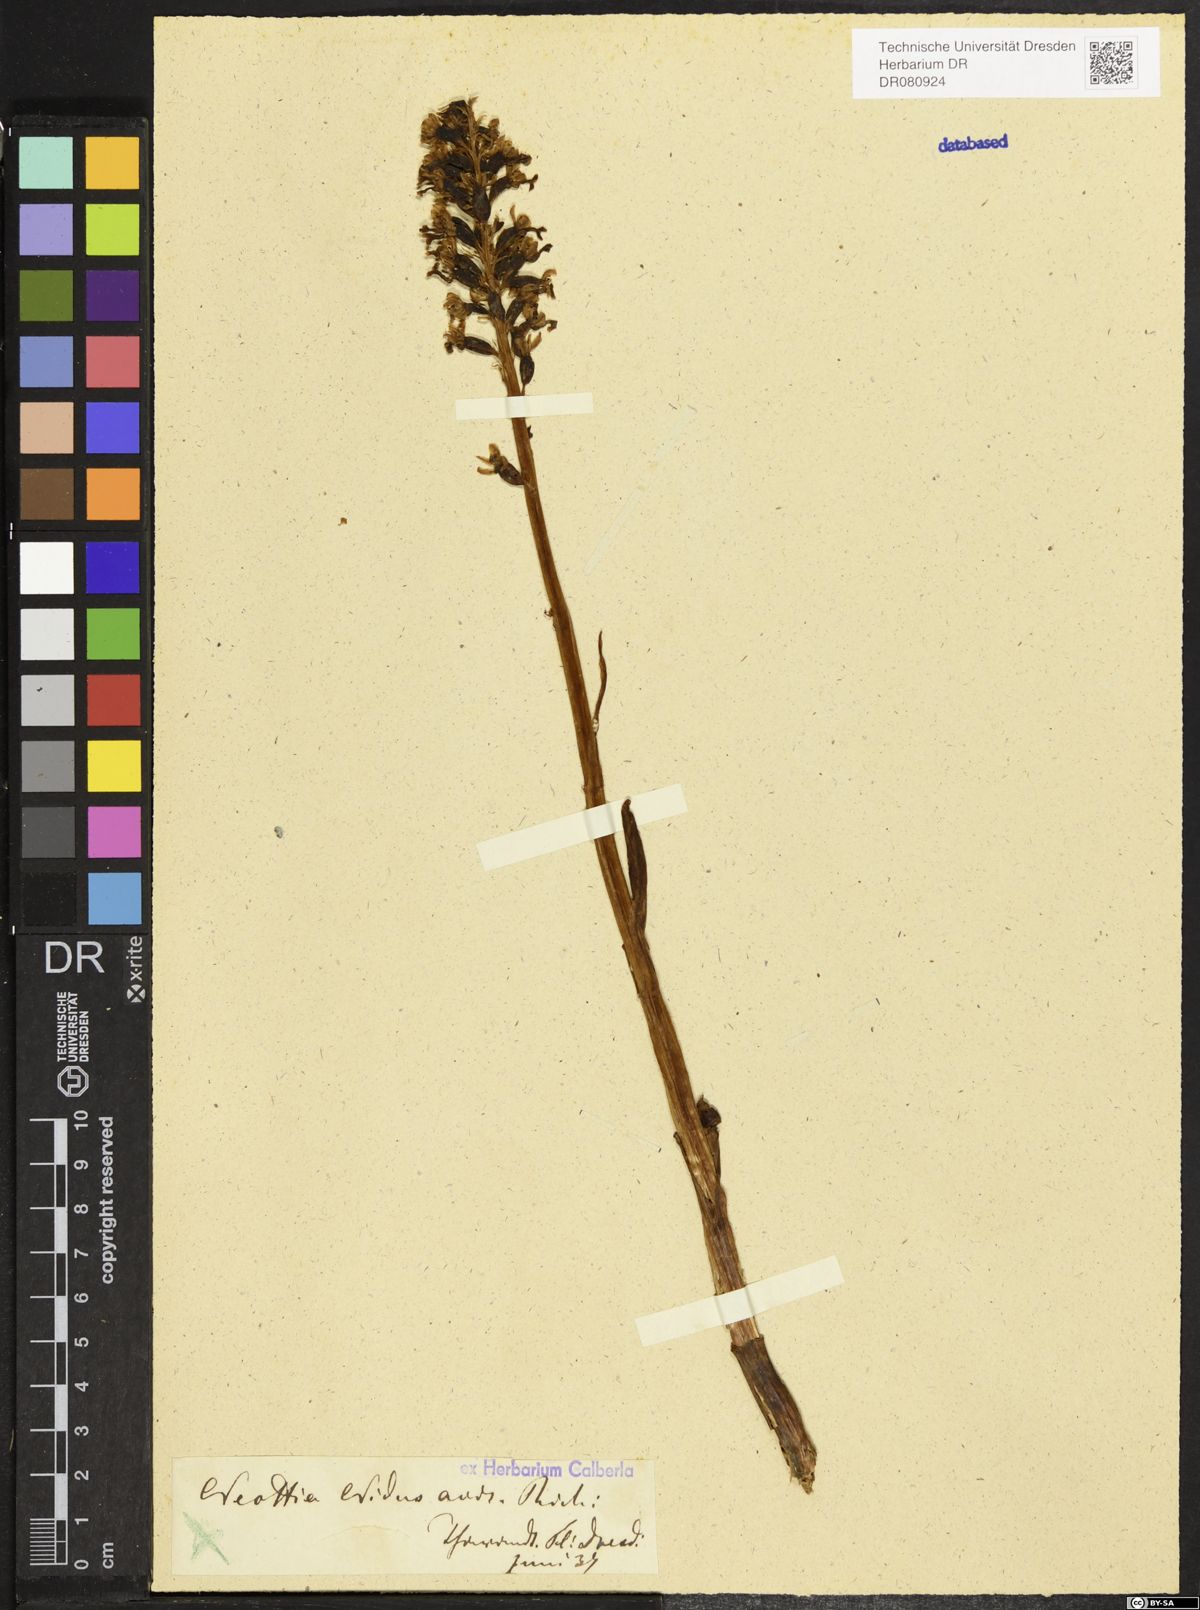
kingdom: Plantae
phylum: Tracheophyta
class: Liliopsida
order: Asparagales
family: Orchidaceae
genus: Neottia
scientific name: Neottia nidus-avis
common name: Bird's-nest orchid
